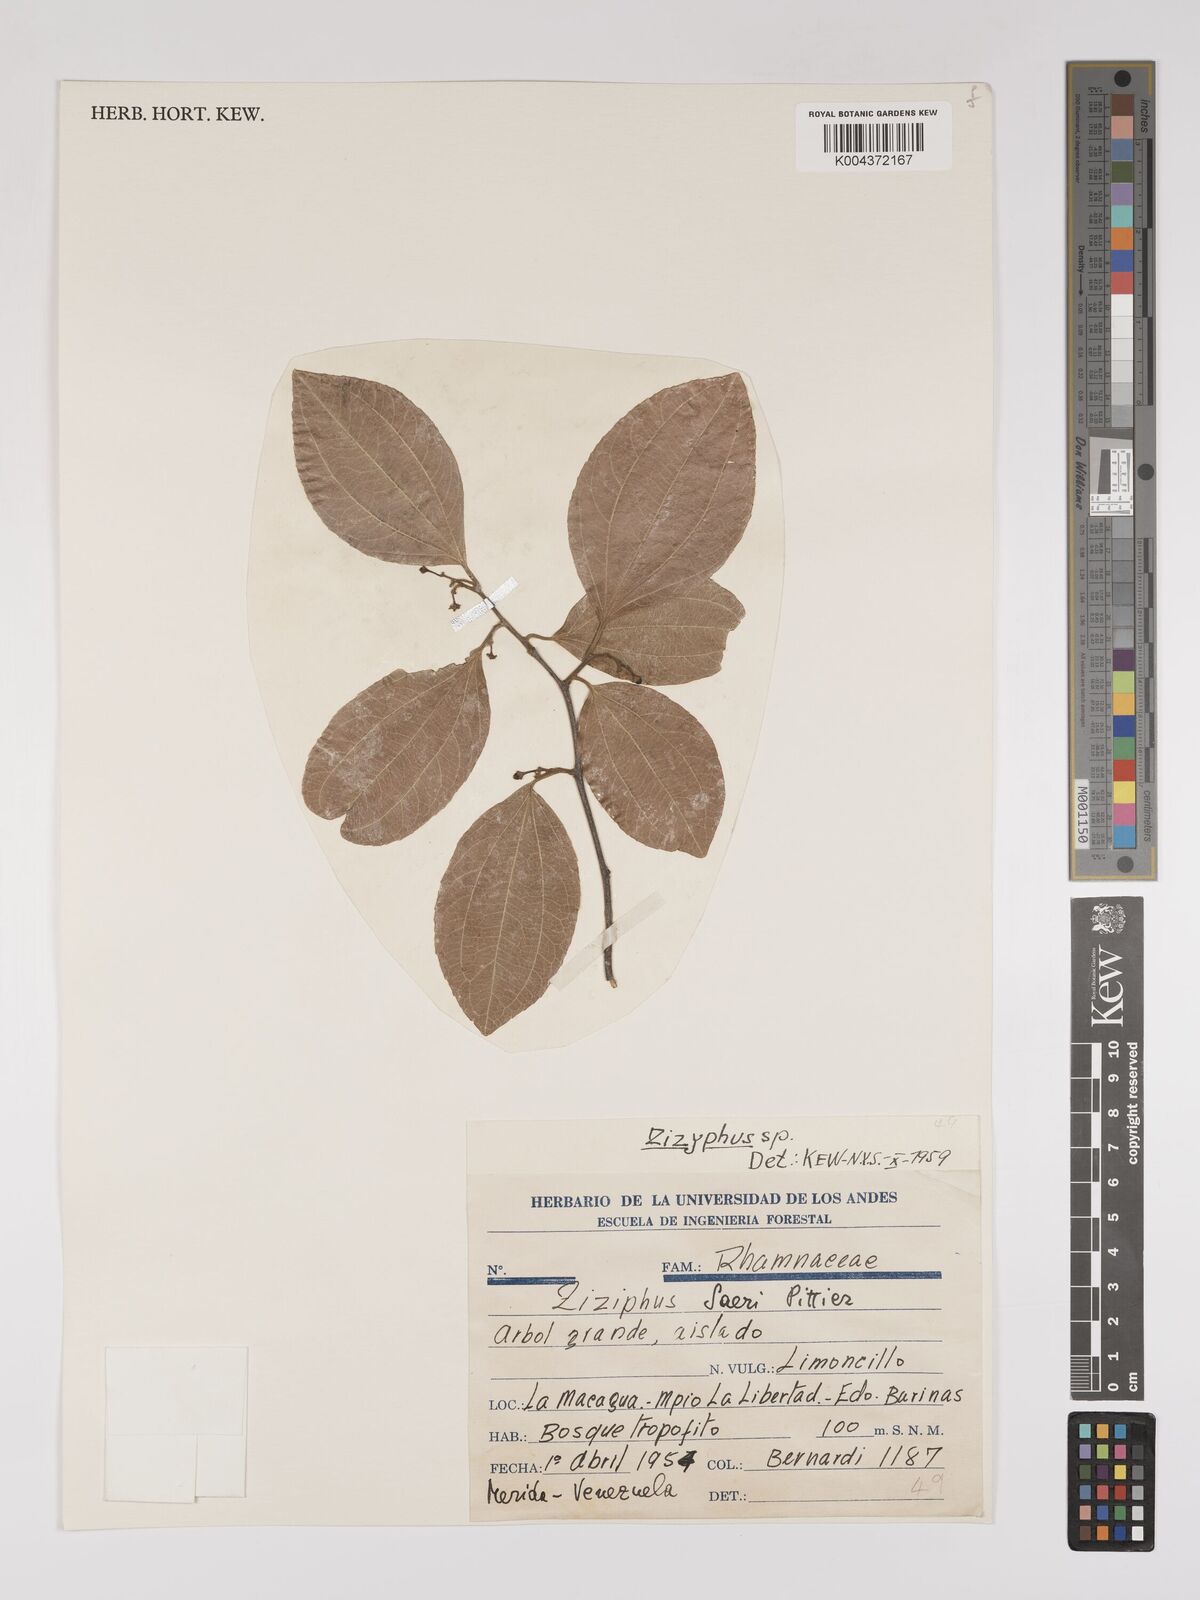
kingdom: Plantae
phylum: Tracheophyta
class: Magnoliopsida
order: Rosales
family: Rhamnaceae
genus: Sarcomphalus
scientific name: Sarcomphalus saeri
